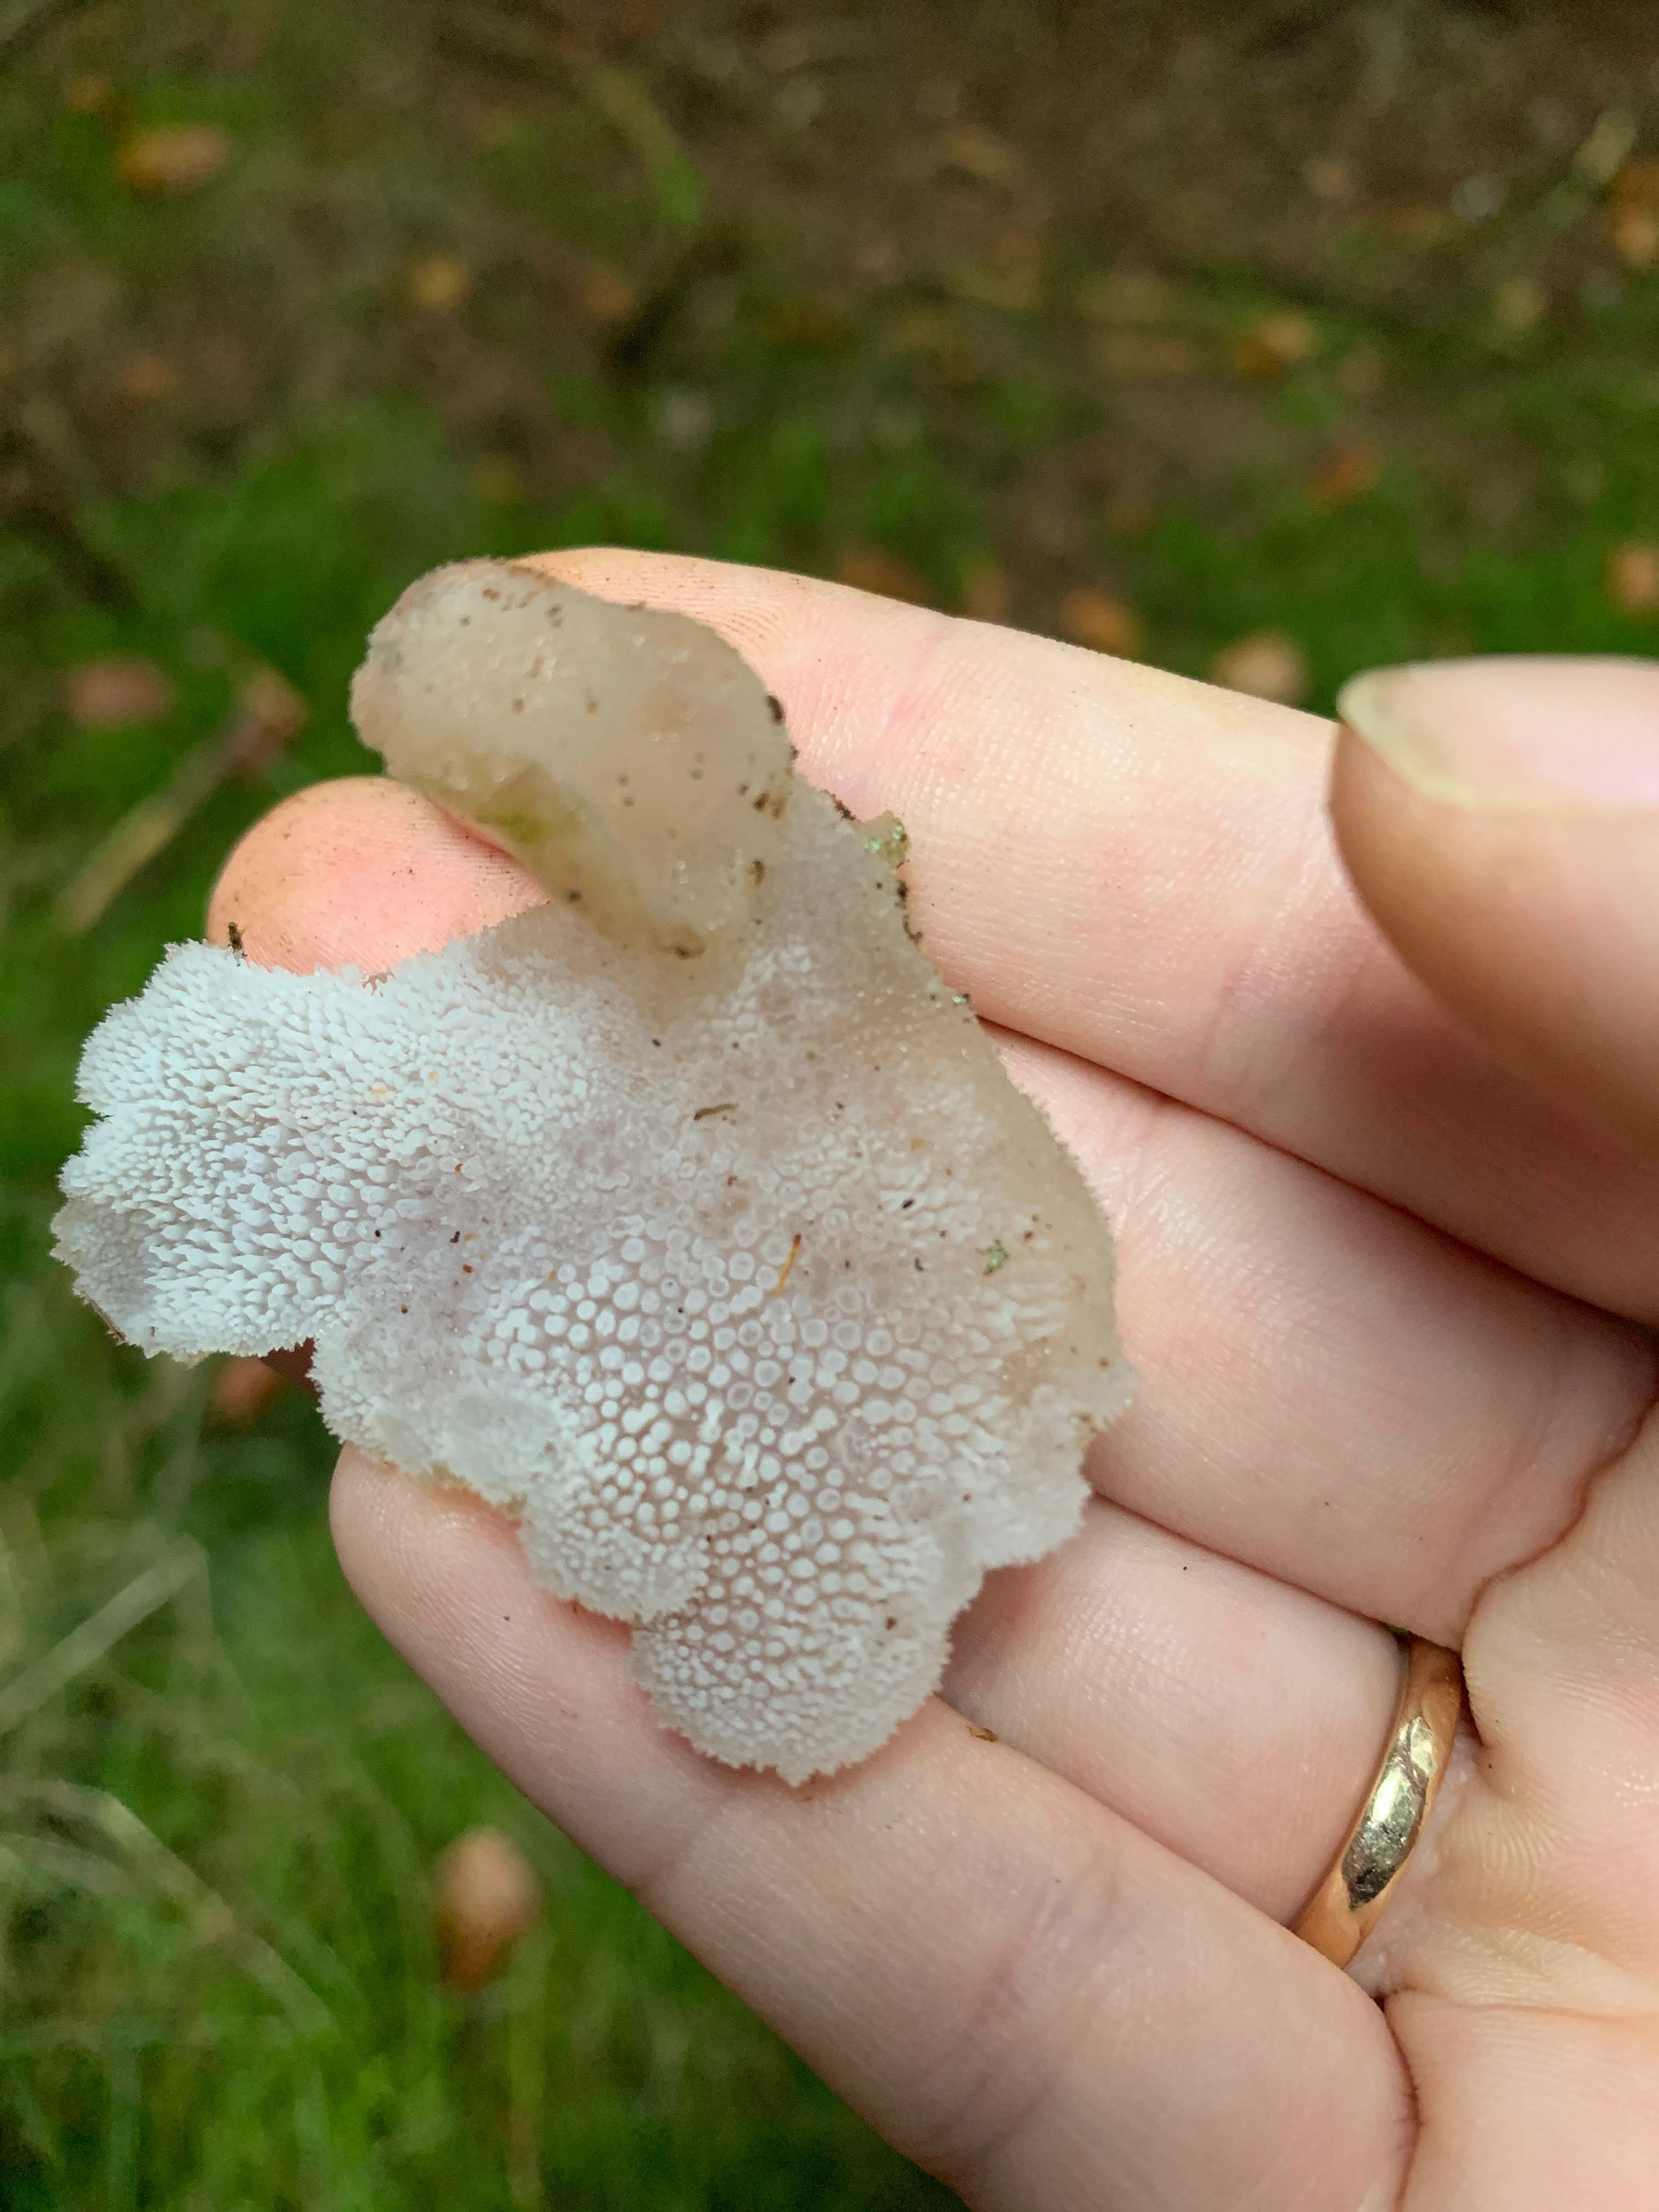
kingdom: Fungi
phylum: Basidiomycota
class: Agaricomycetes
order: Auriculariales
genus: Pseudohydnum
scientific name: Pseudohydnum gelatinosum
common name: bævretand
